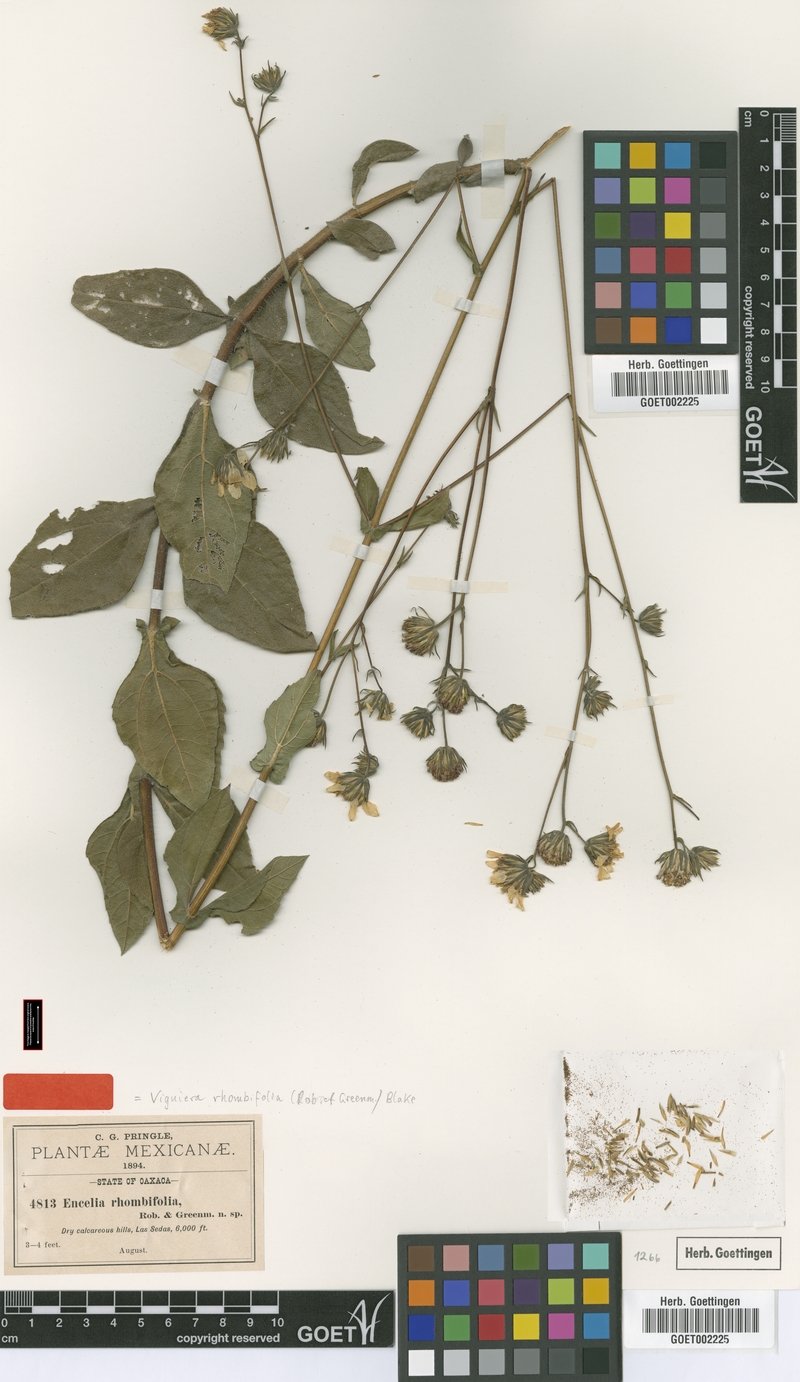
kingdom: Plantae
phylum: Tracheophyta
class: Magnoliopsida
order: Asterales
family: Asteraceae
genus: Simsia
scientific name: Simsia rhombifolia
